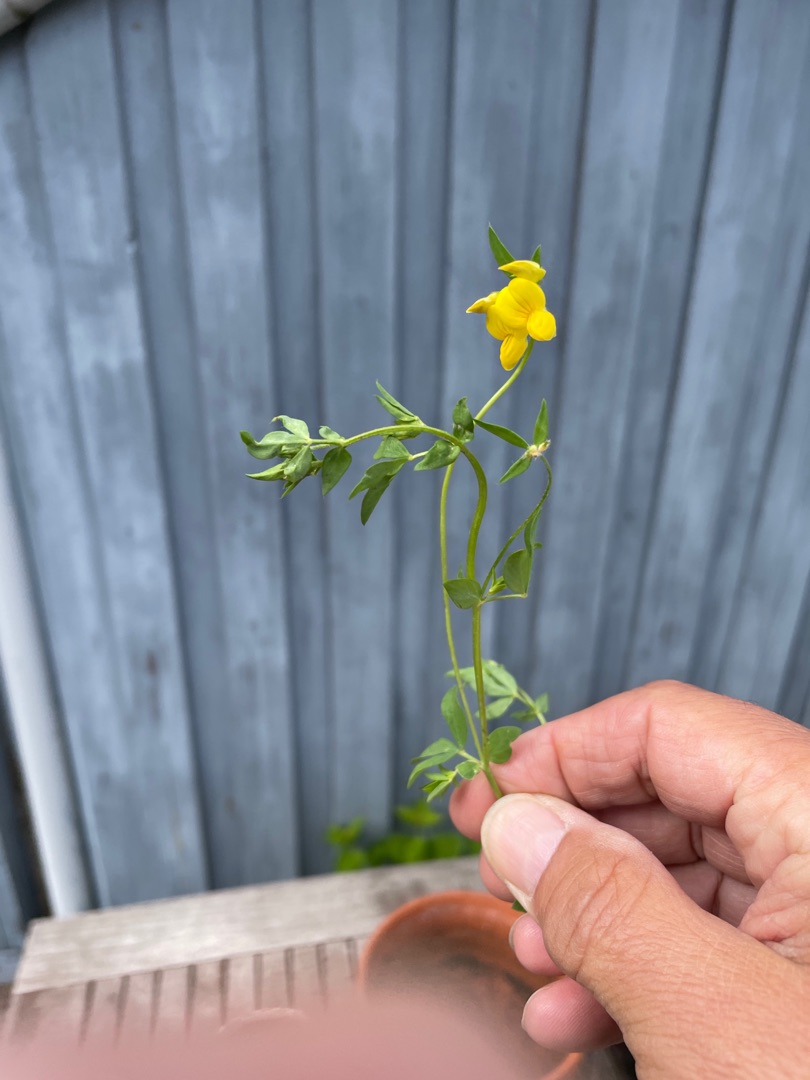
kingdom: Plantae
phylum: Tracheophyta
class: Magnoliopsida
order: Fabales
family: Fabaceae
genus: Lotus
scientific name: Lotus corniculatus
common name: Almindelig kællingetand
